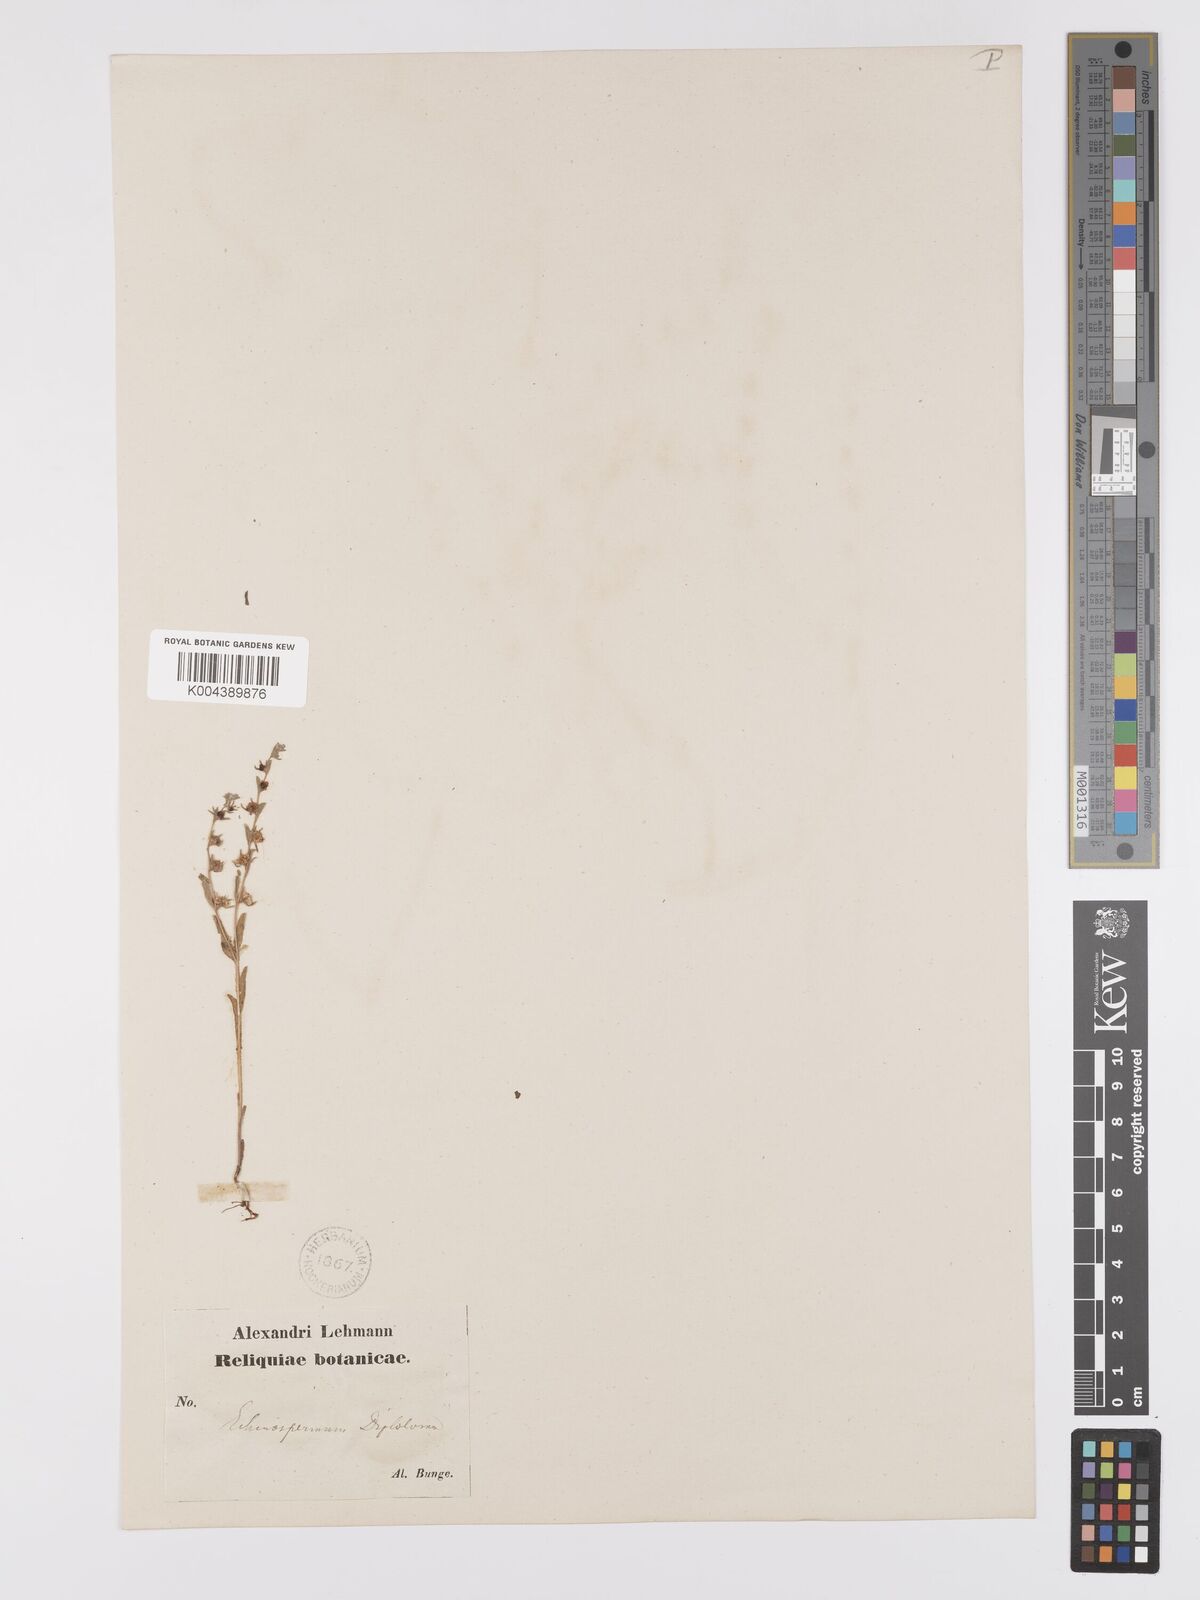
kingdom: Plantae
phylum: Tracheophyta
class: Magnoliopsida
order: Boraginales
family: Boraginaceae
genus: Lappula
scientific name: Lappula diploloma
